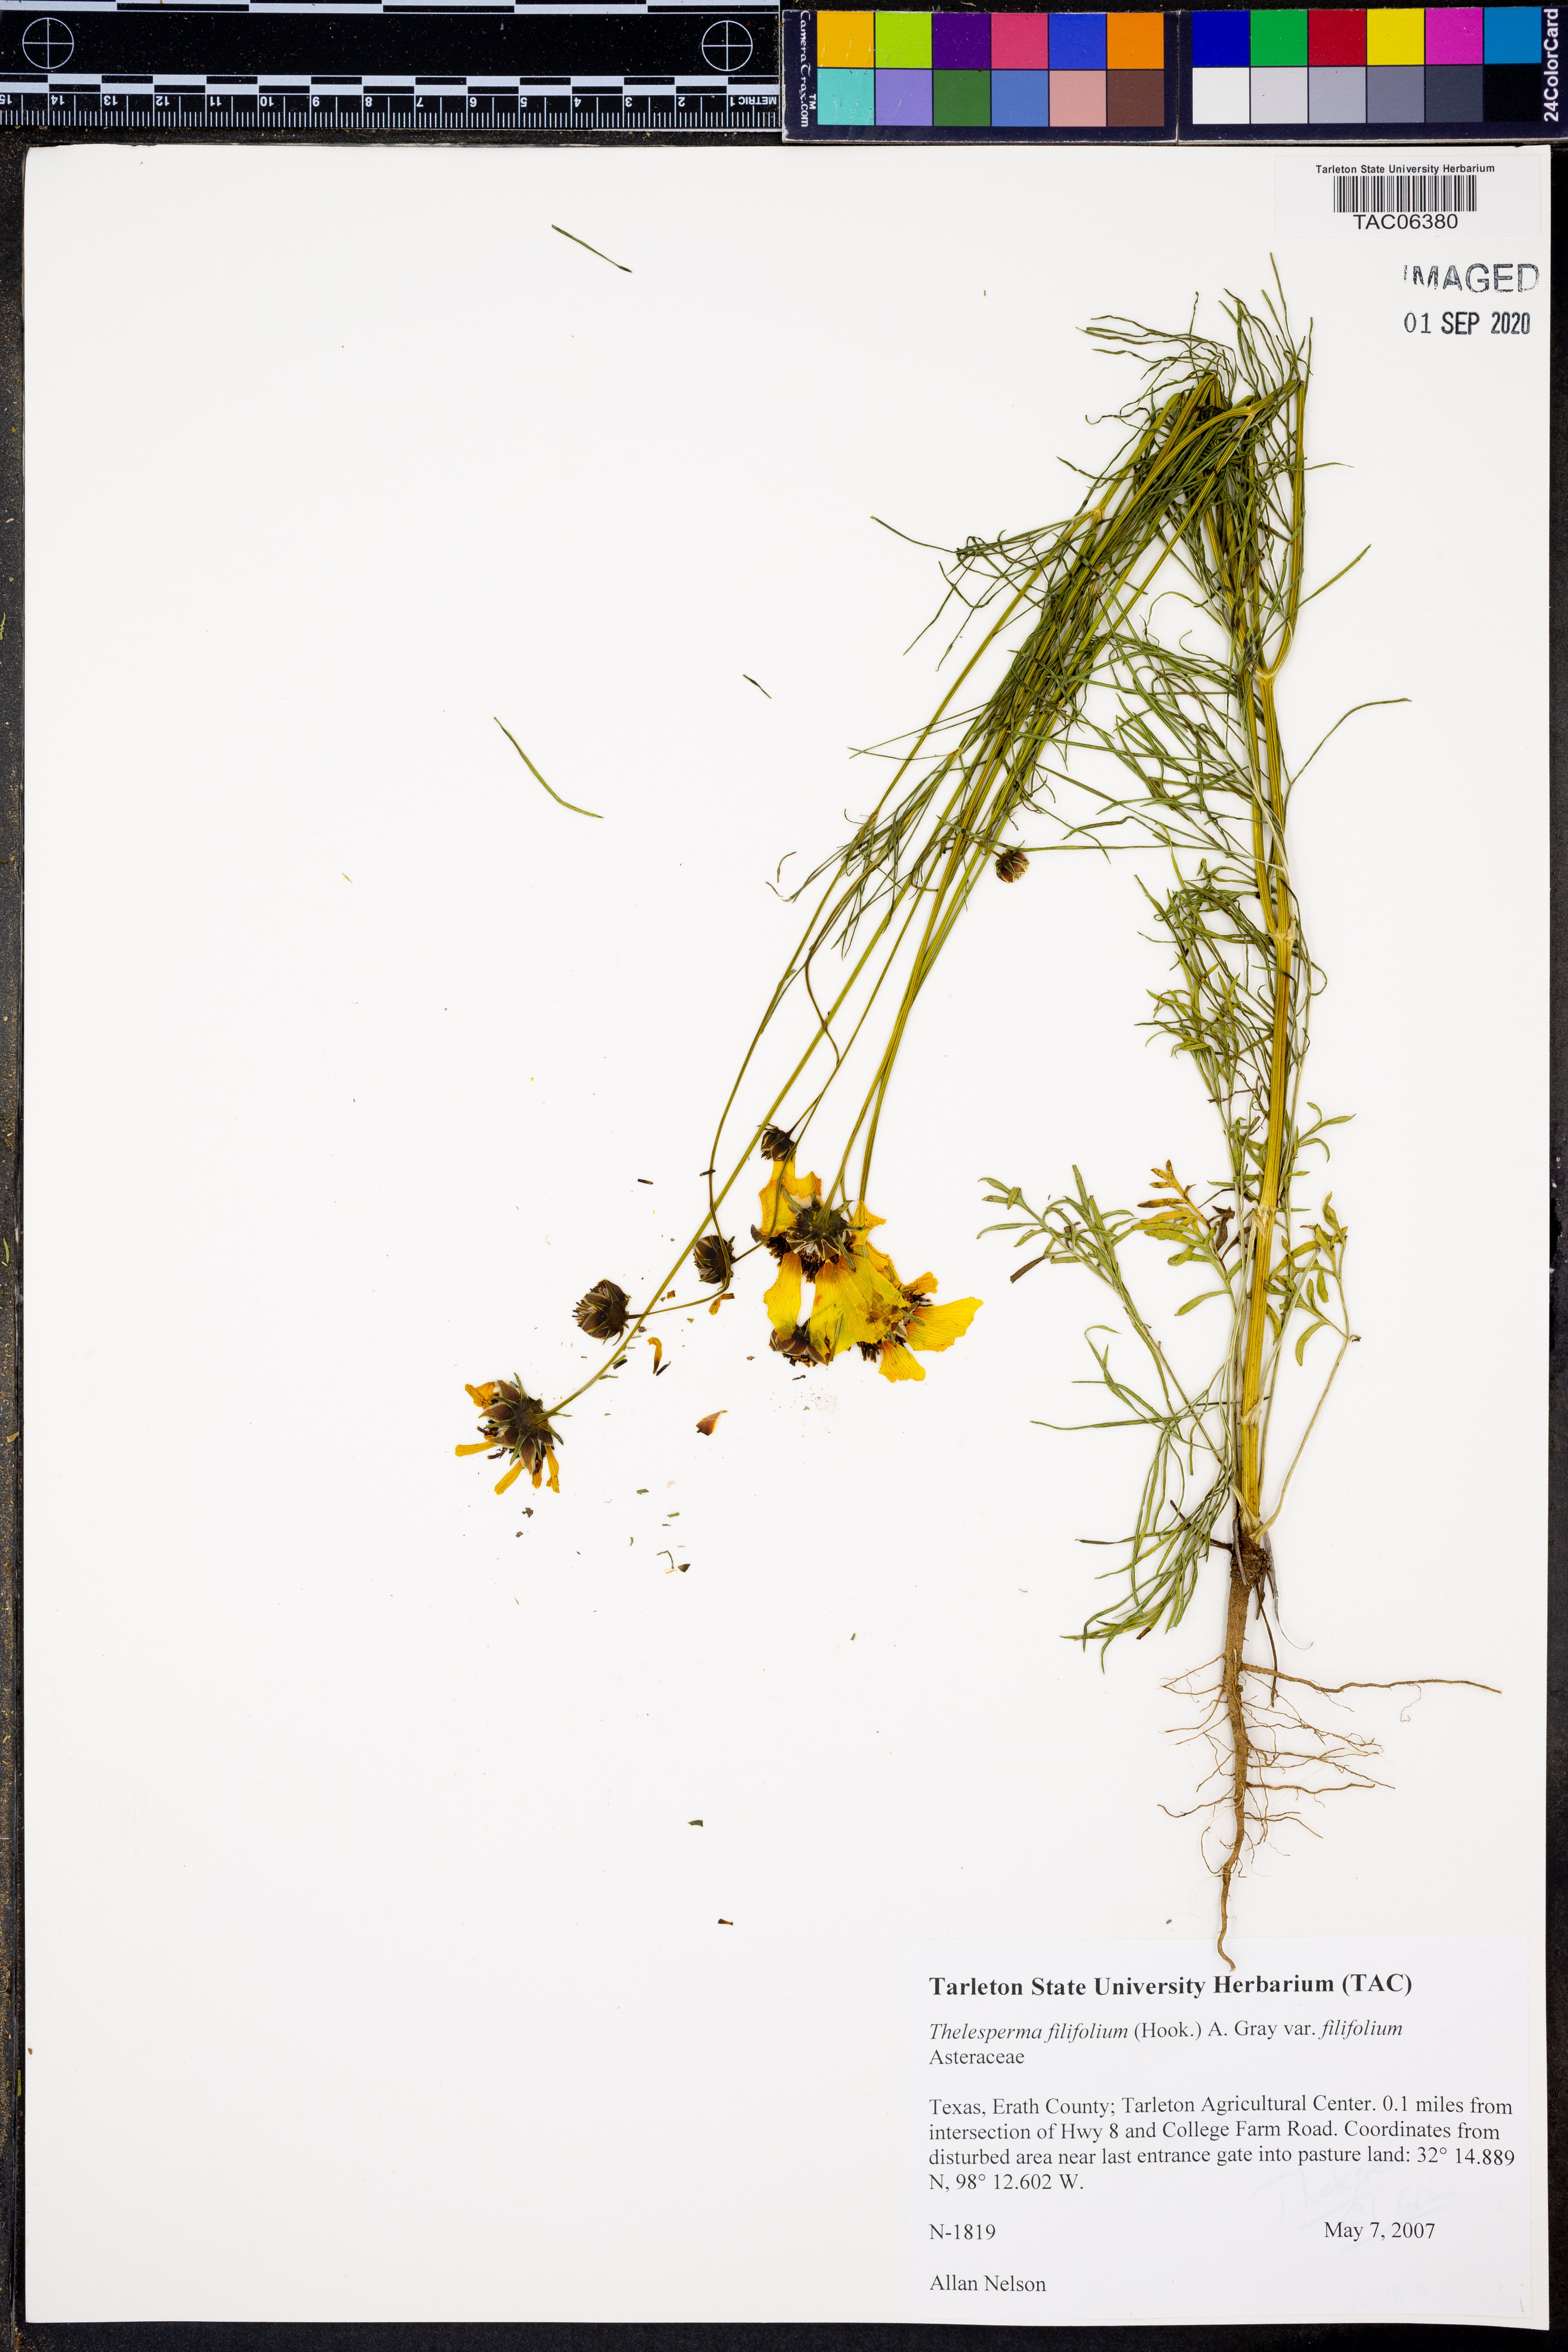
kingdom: Plantae
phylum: Tracheophyta
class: Magnoliopsida
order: Asterales
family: Asteraceae
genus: Thelesperma
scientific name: Thelesperma filifolium
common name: Stiff greenthread
